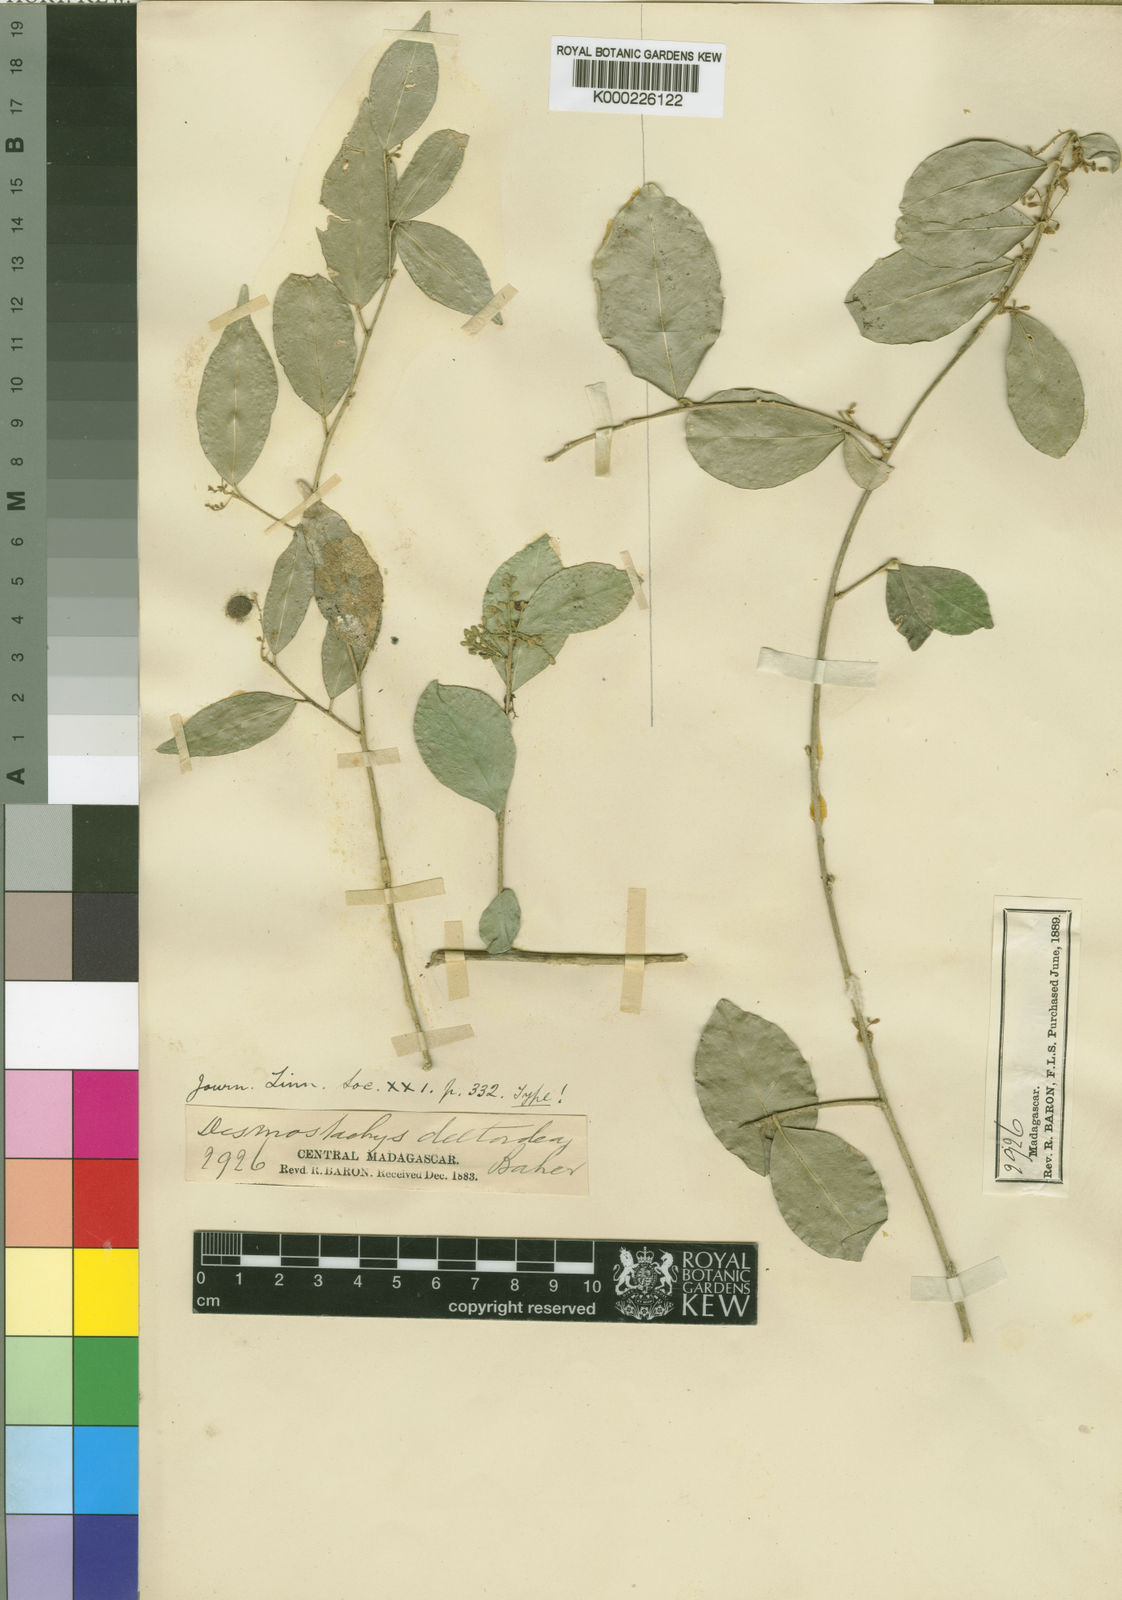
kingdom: Plantae
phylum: Tracheophyta
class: Magnoliopsida
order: Icacinales
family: Icacinaceae
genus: Desmostachys
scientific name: Desmostachys planchonianus
